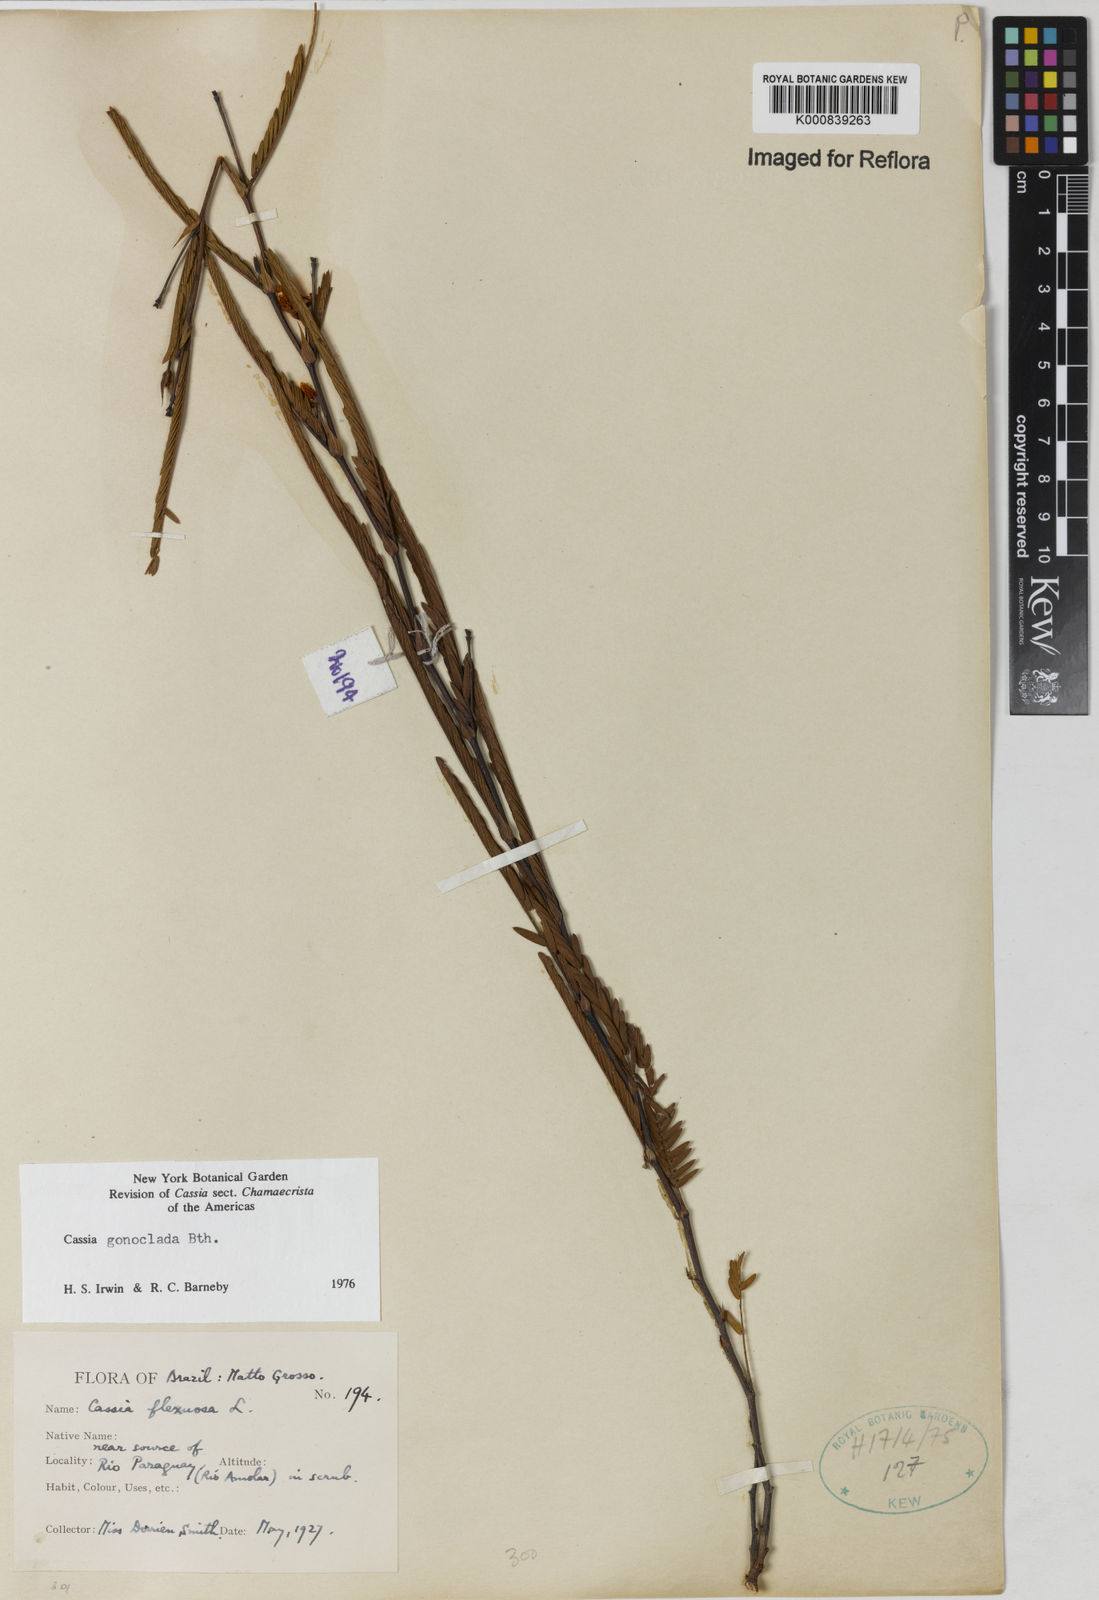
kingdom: Plantae
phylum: Tracheophyta
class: Magnoliopsida
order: Fabales
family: Fabaceae
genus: Chamaecrista
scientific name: Chamaecrista gonoclada
